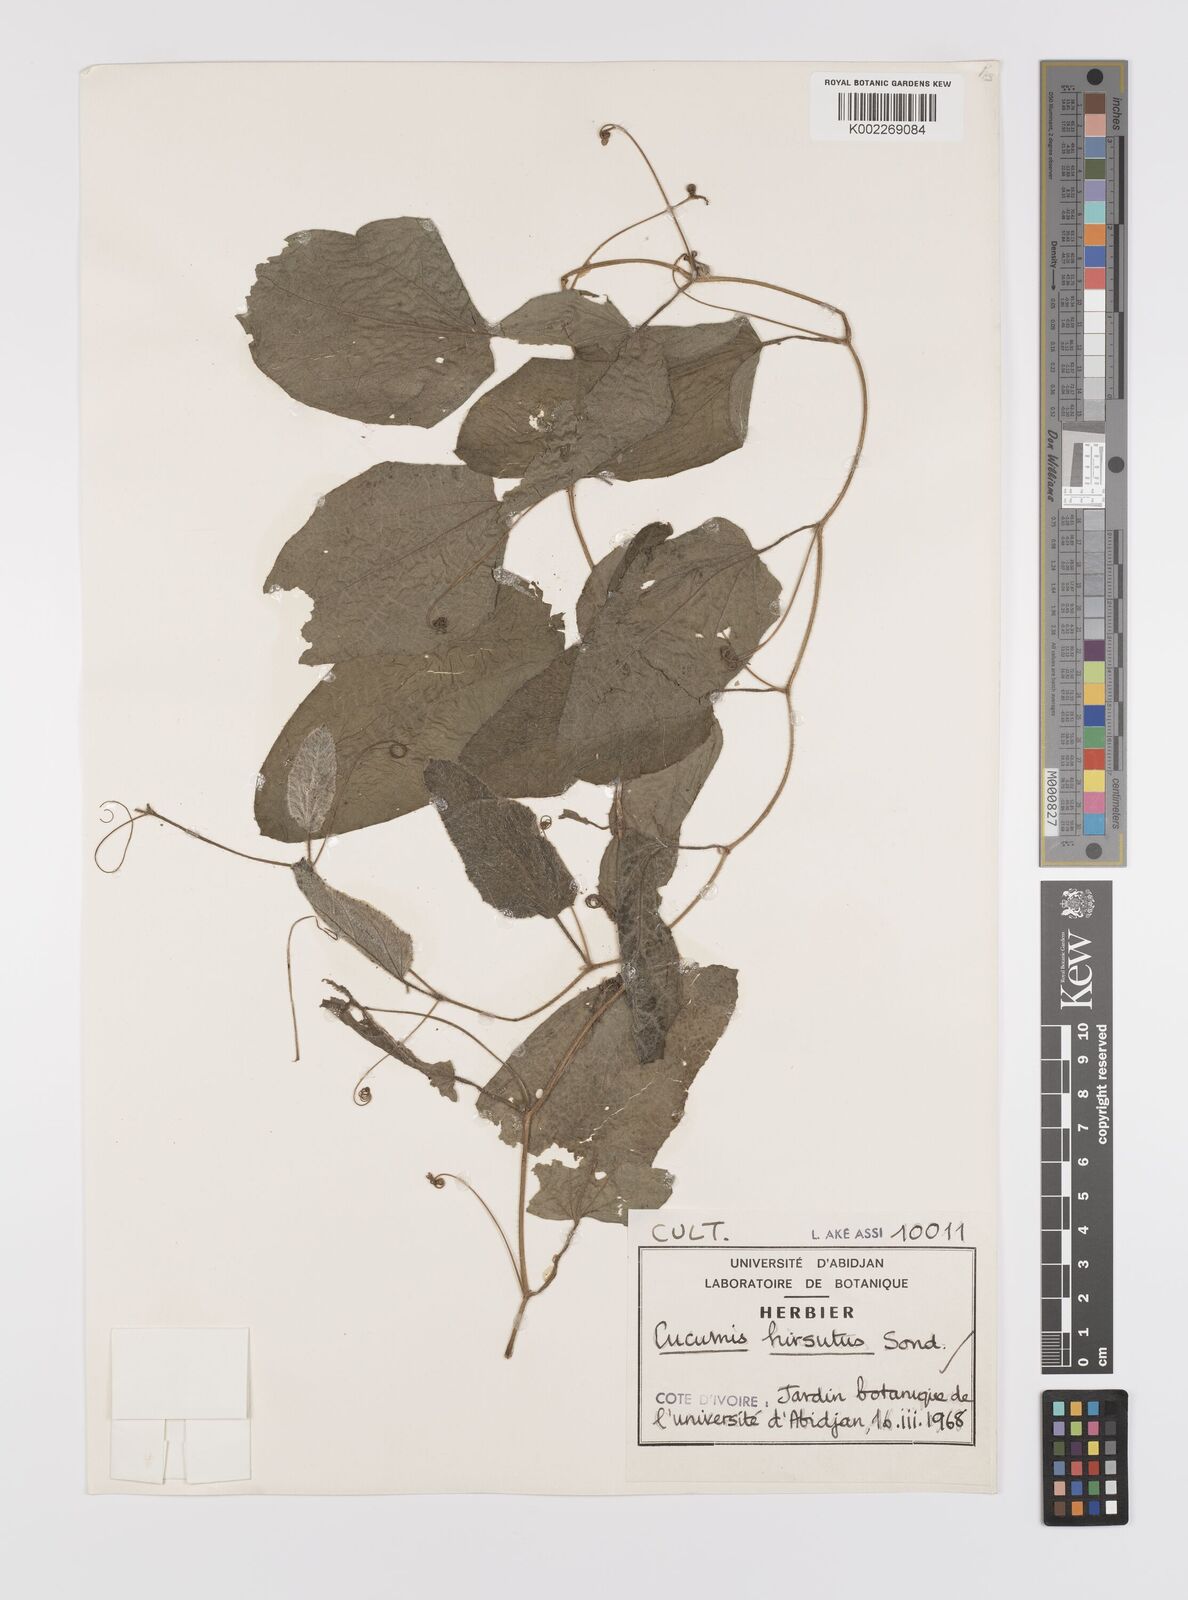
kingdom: Plantae
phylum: Tracheophyta
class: Magnoliopsida
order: Cucurbitales
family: Cucurbitaceae
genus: Cucumis
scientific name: Cucumis hirsutus
